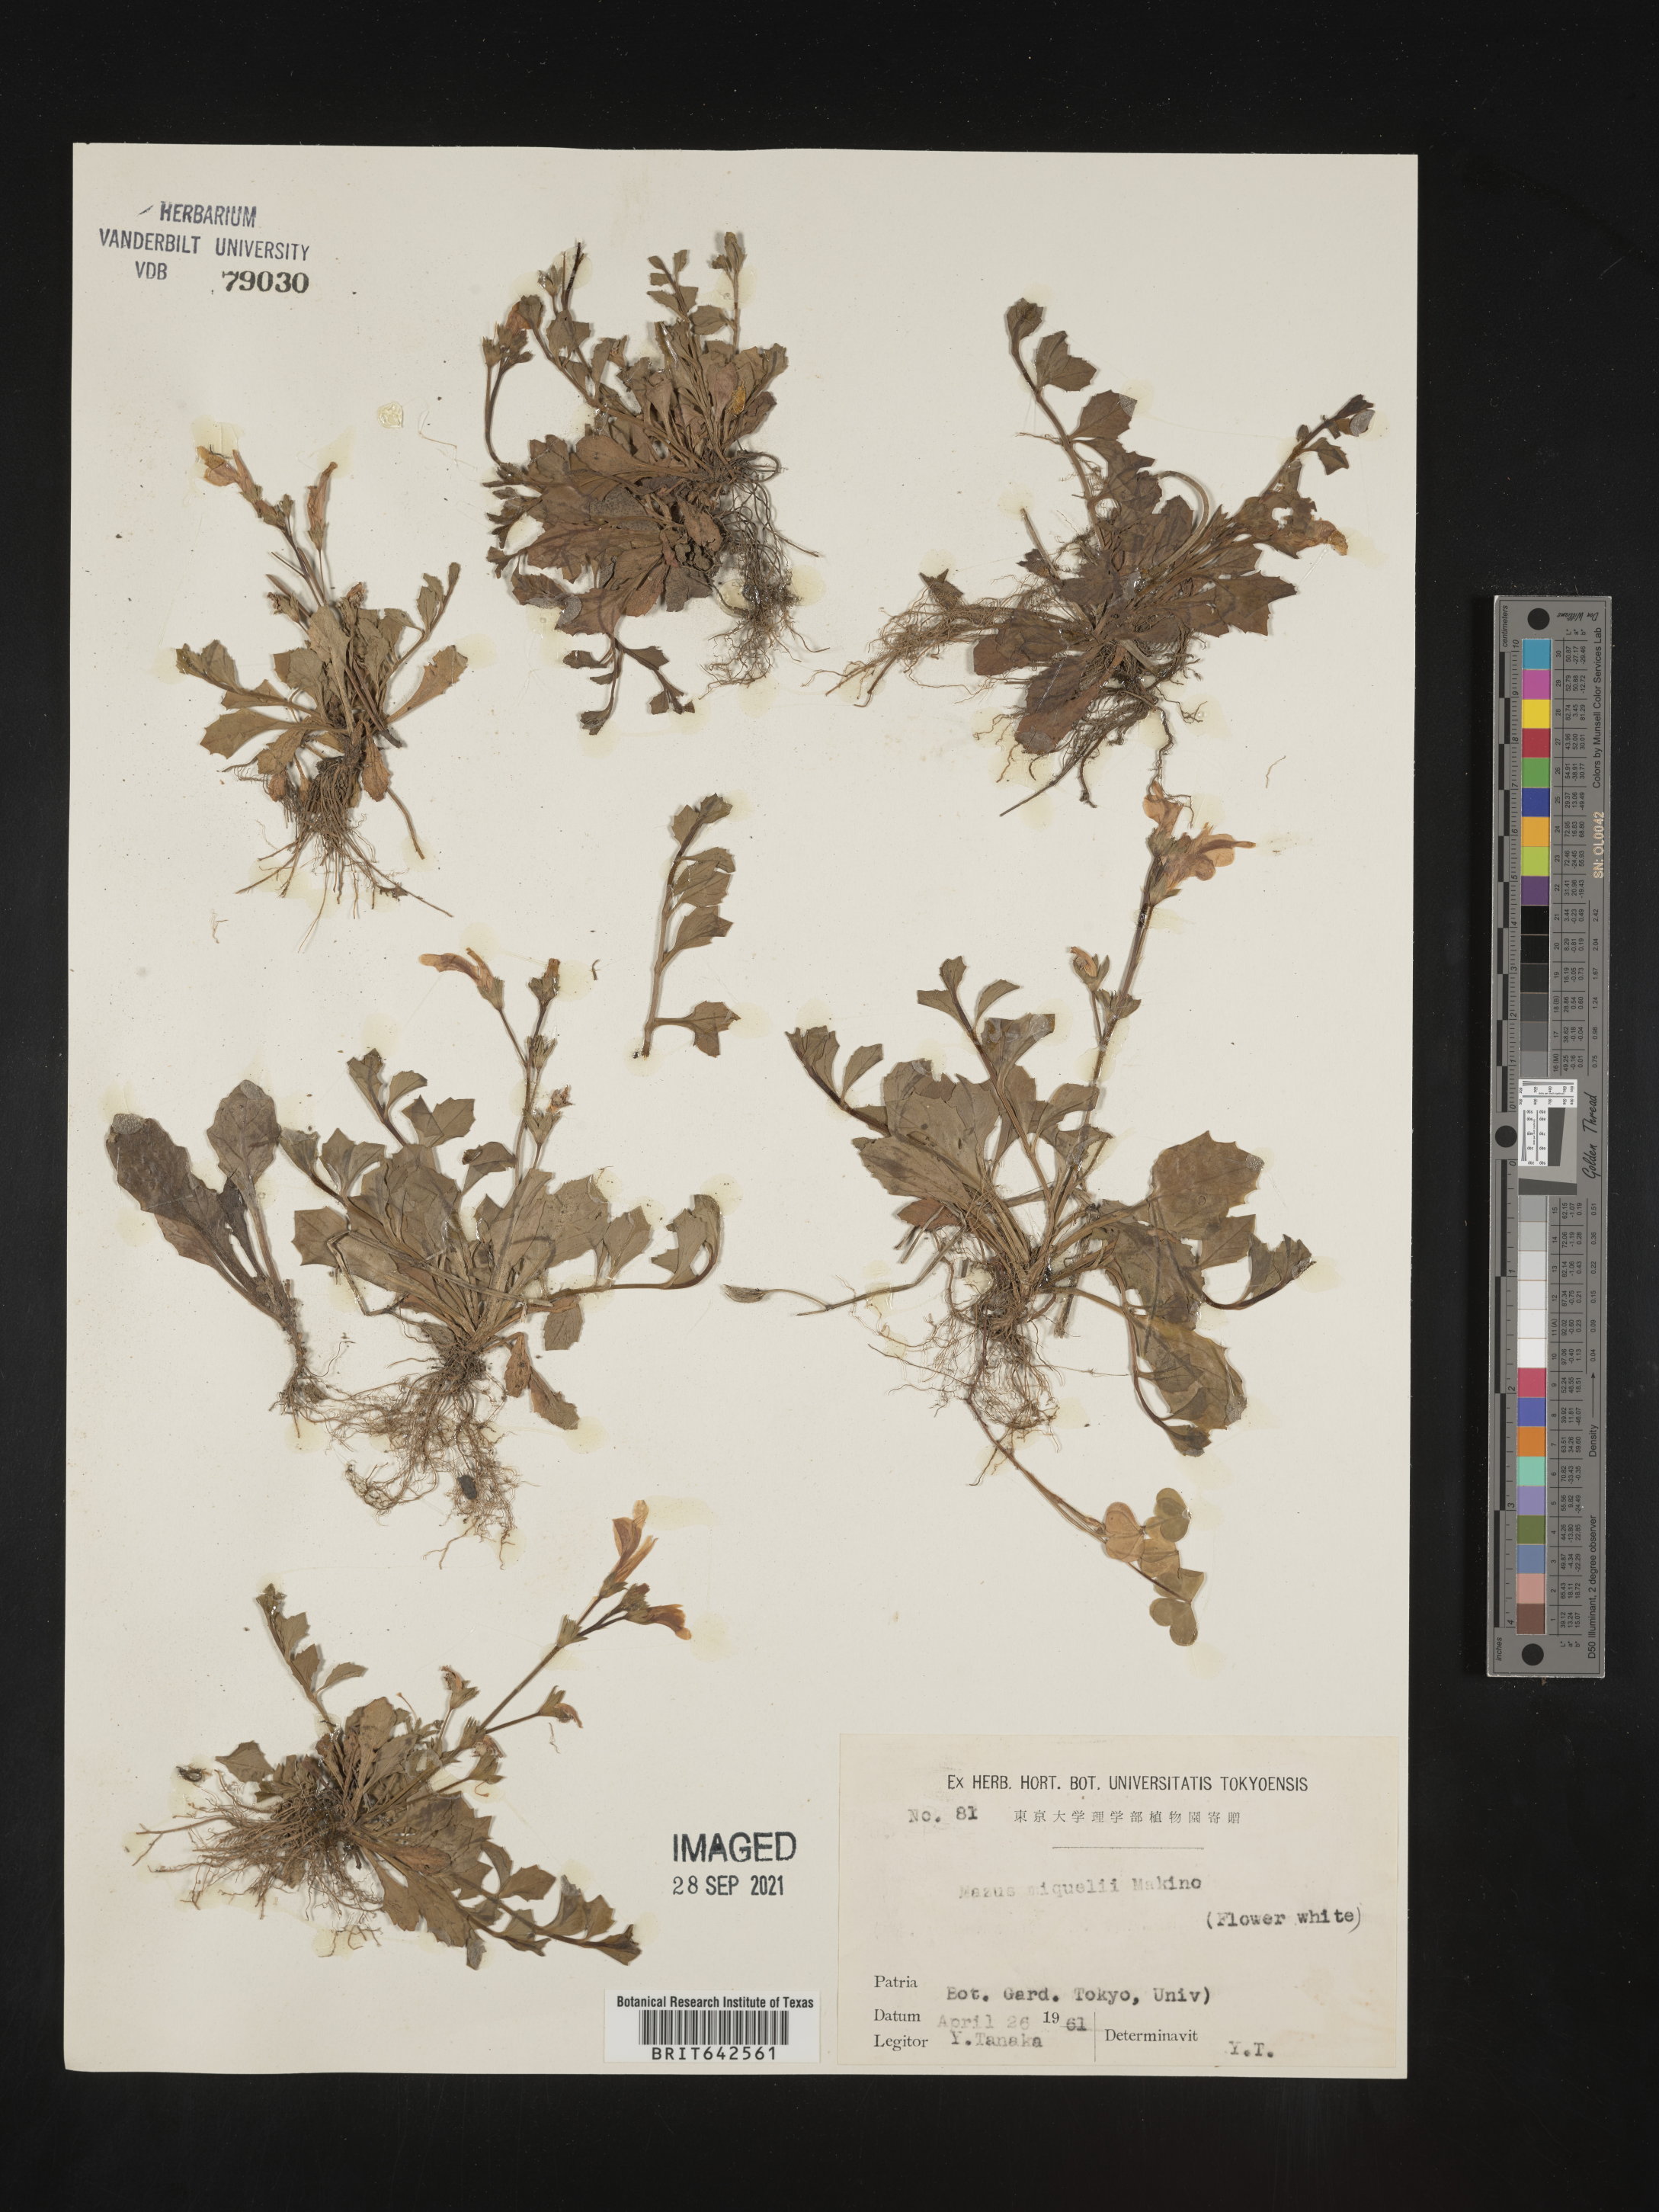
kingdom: Plantae
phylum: Tracheophyta
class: Magnoliopsida
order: Lamiales
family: Mazaceae
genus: Mazus
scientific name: Mazus
